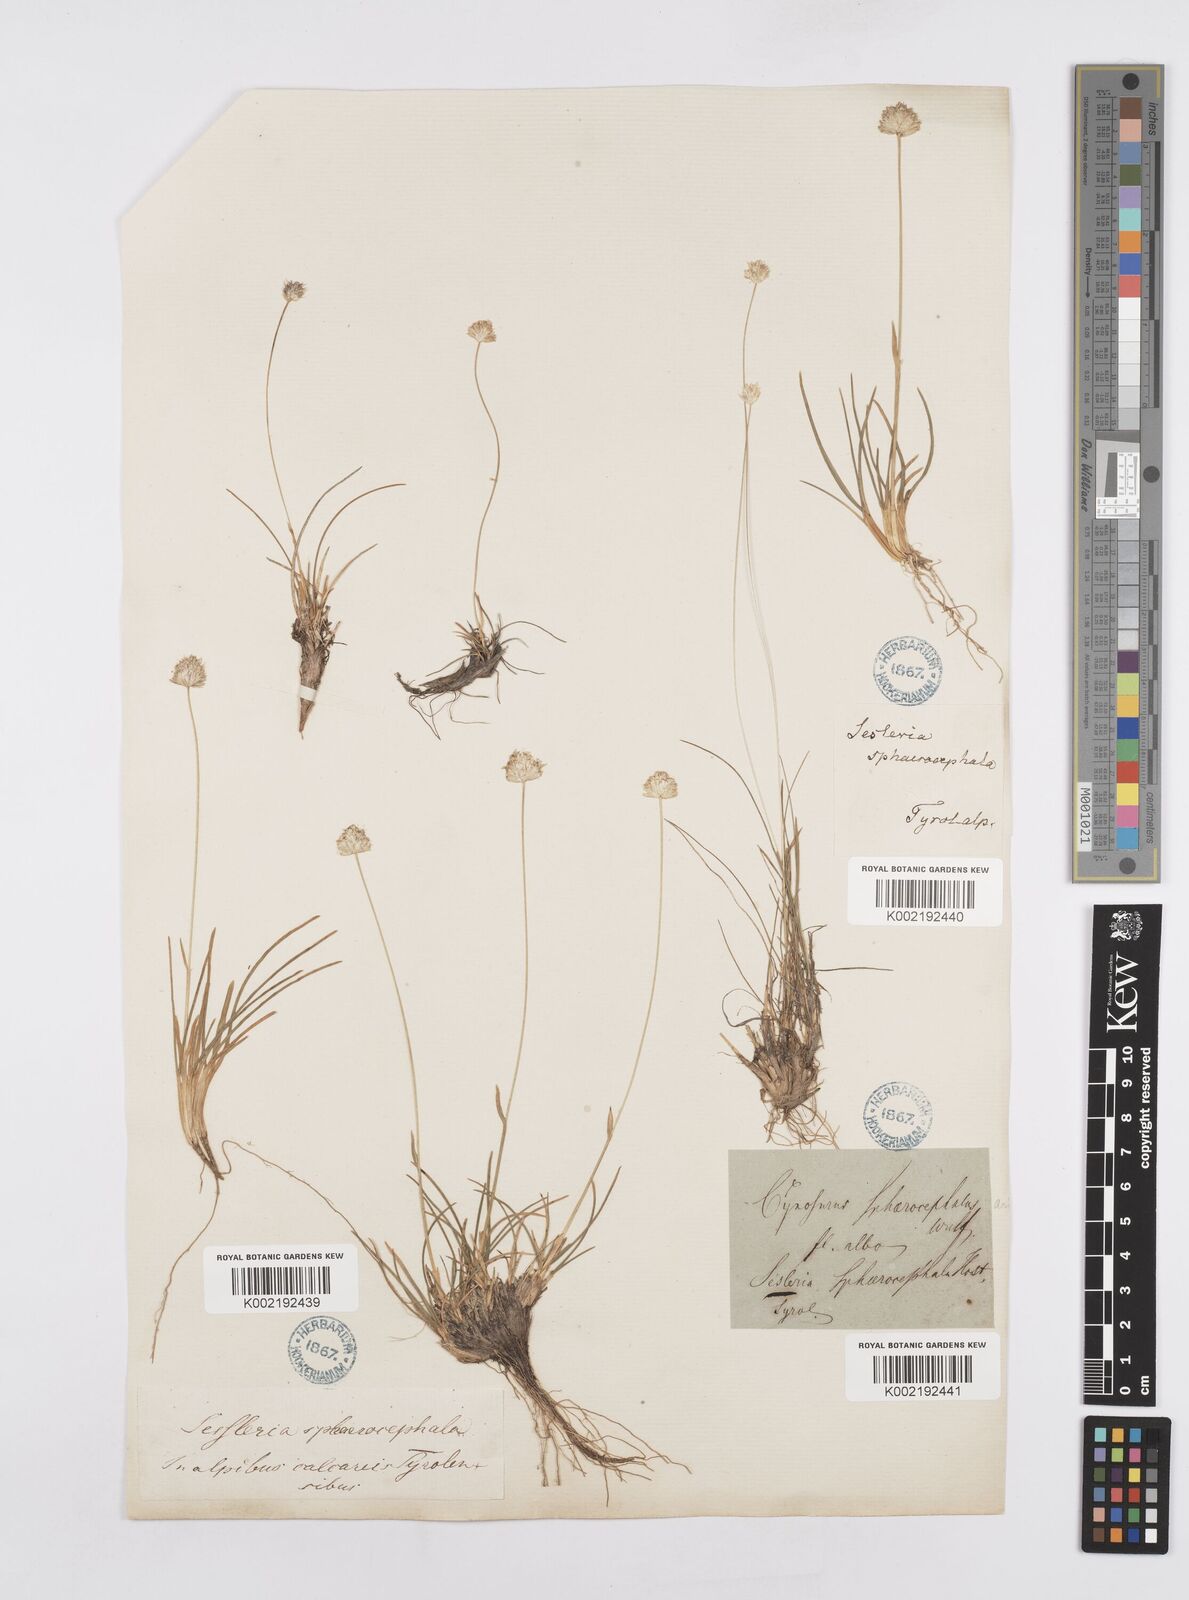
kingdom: Plantae
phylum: Tracheophyta
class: Liliopsida
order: Poales
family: Poaceae
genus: Sesleriella
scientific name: Sesleriella sphaerocephala
